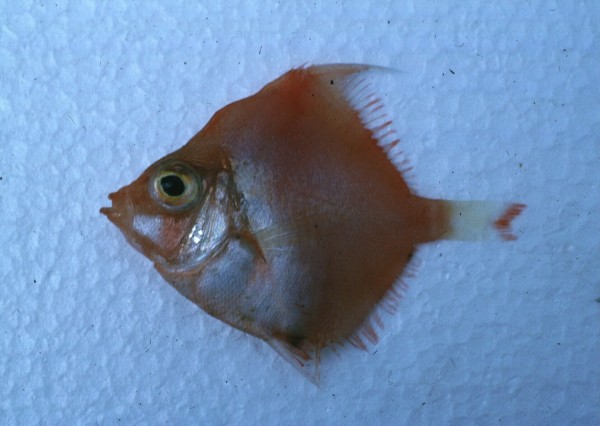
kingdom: Animalia
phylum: Chordata
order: Perciformes
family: Caproidae
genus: Antigonia
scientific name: Antigonia undulata
